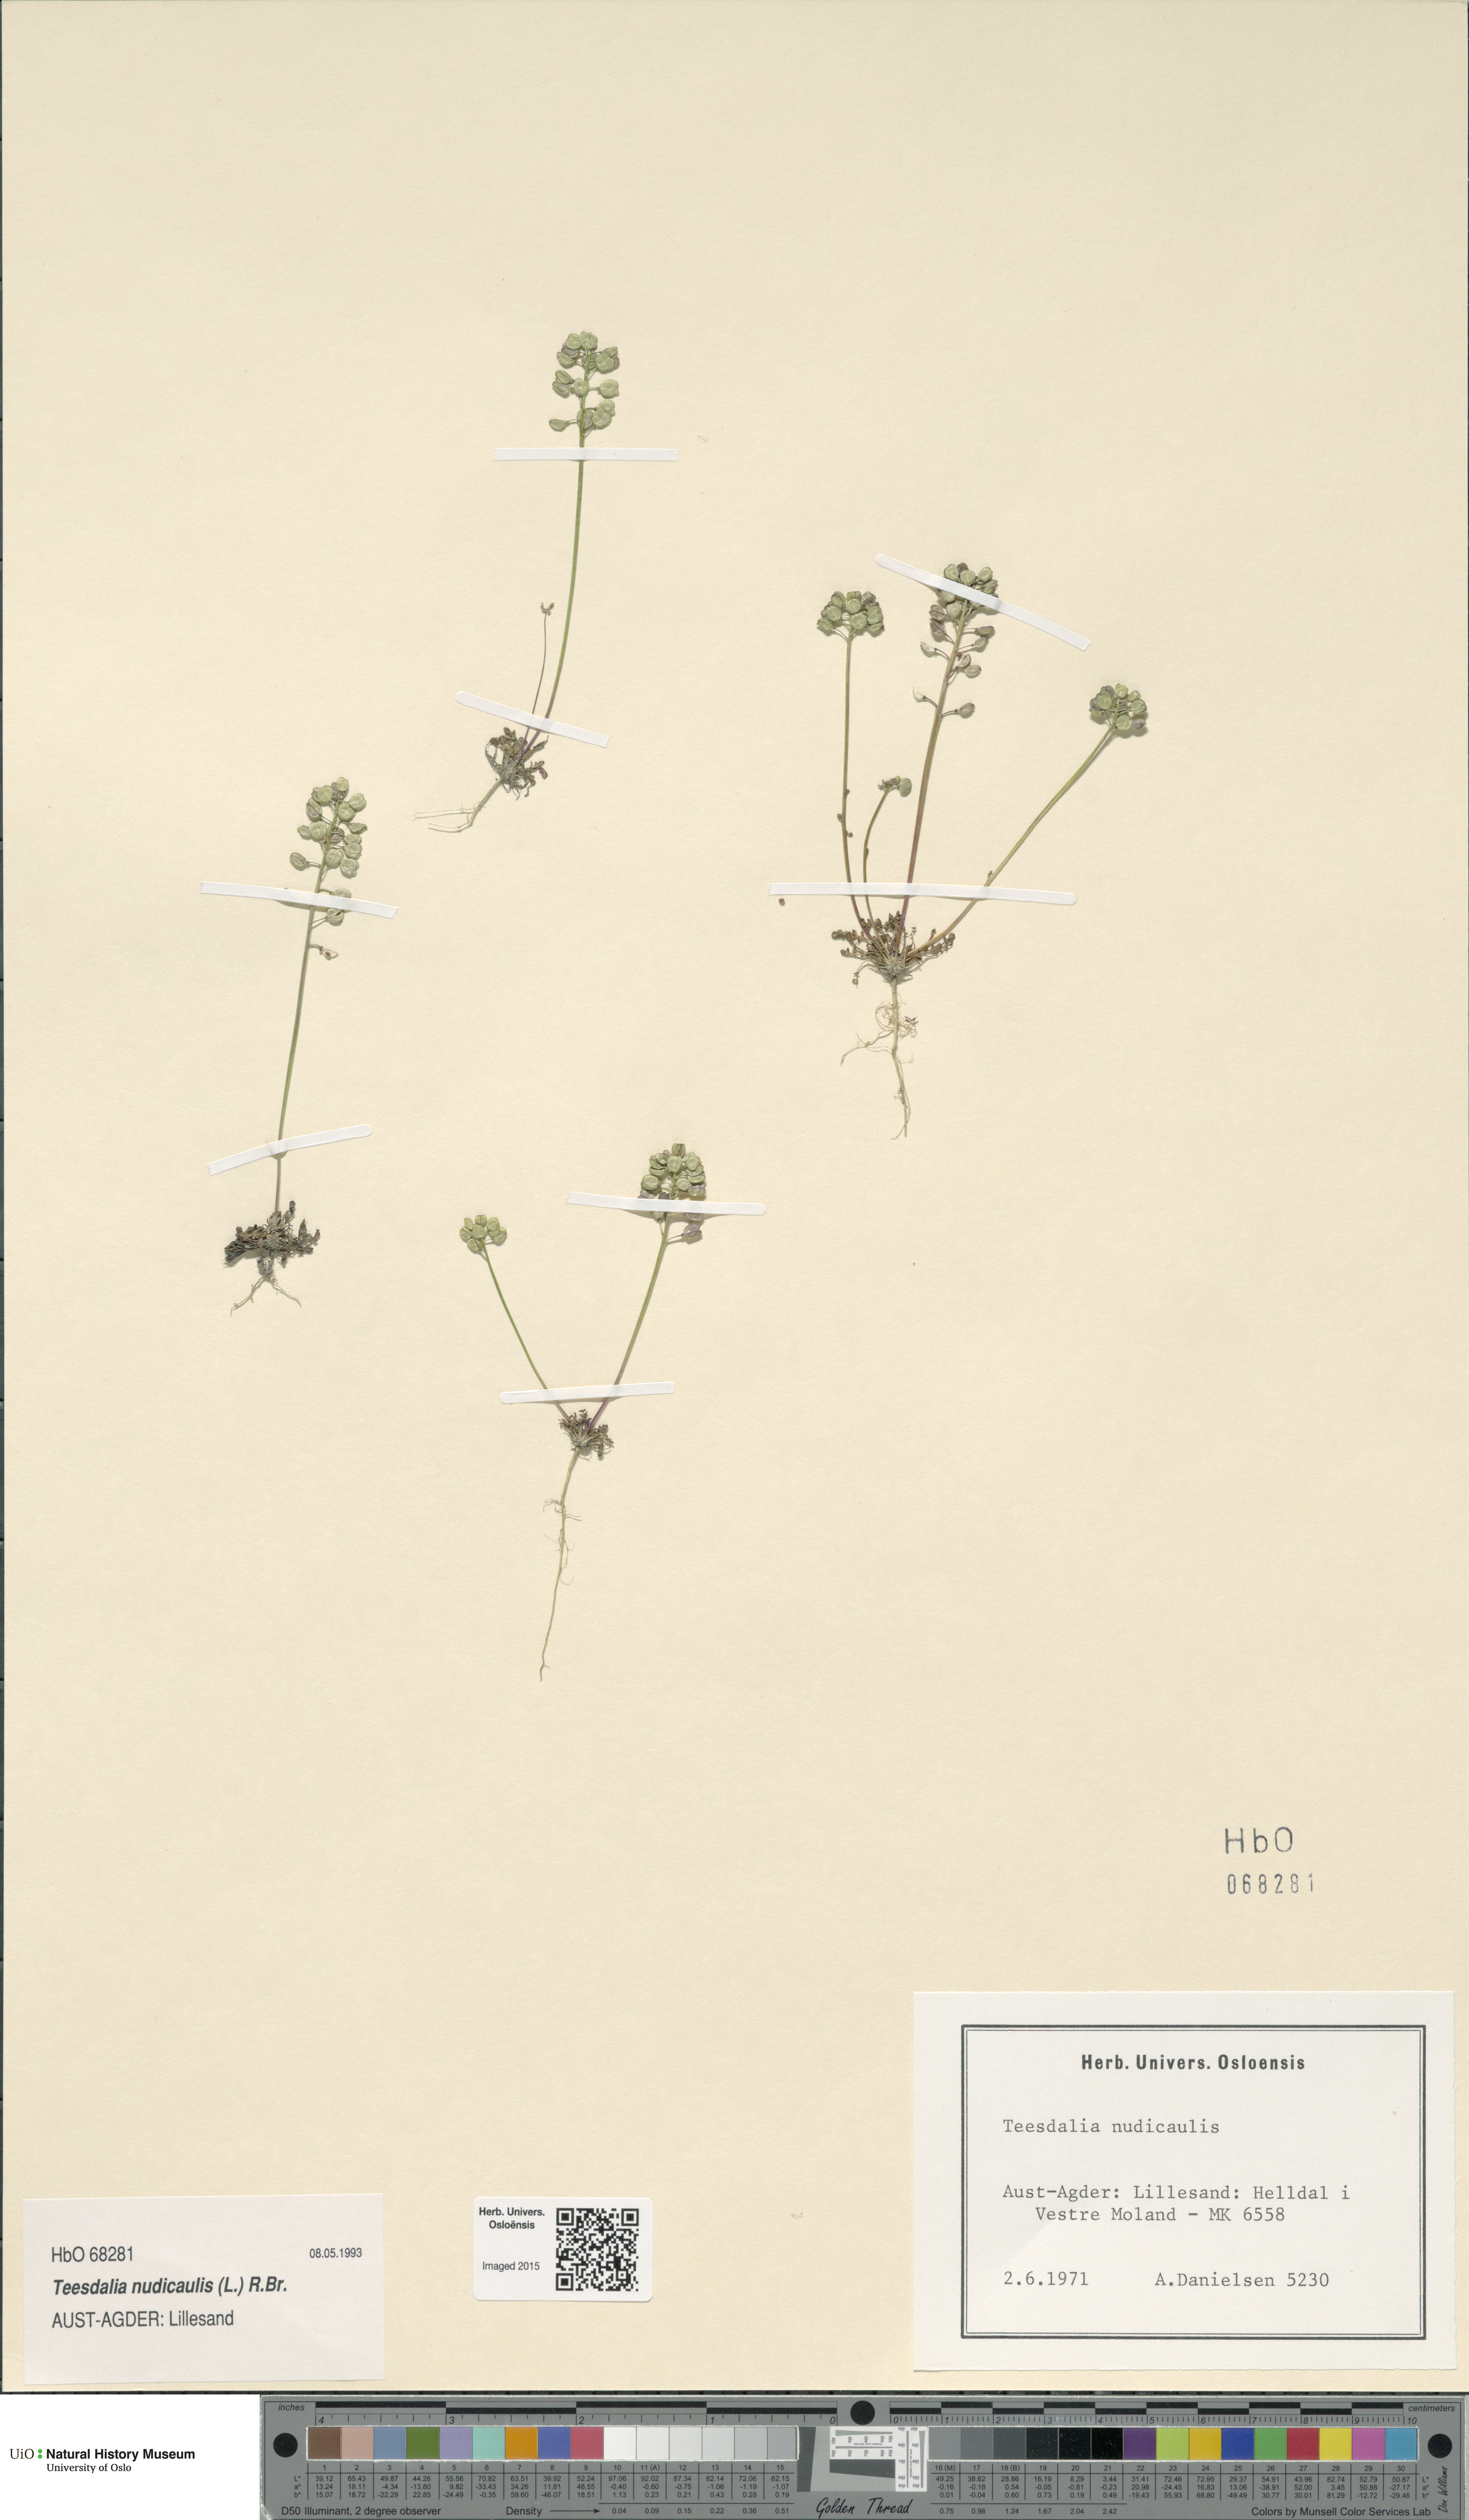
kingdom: Plantae
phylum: Tracheophyta
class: Magnoliopsida
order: Brassicales
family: Brassicaceae
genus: Teesdalia
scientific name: Teesdalia nudicaulis
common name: Shepherd's cress
